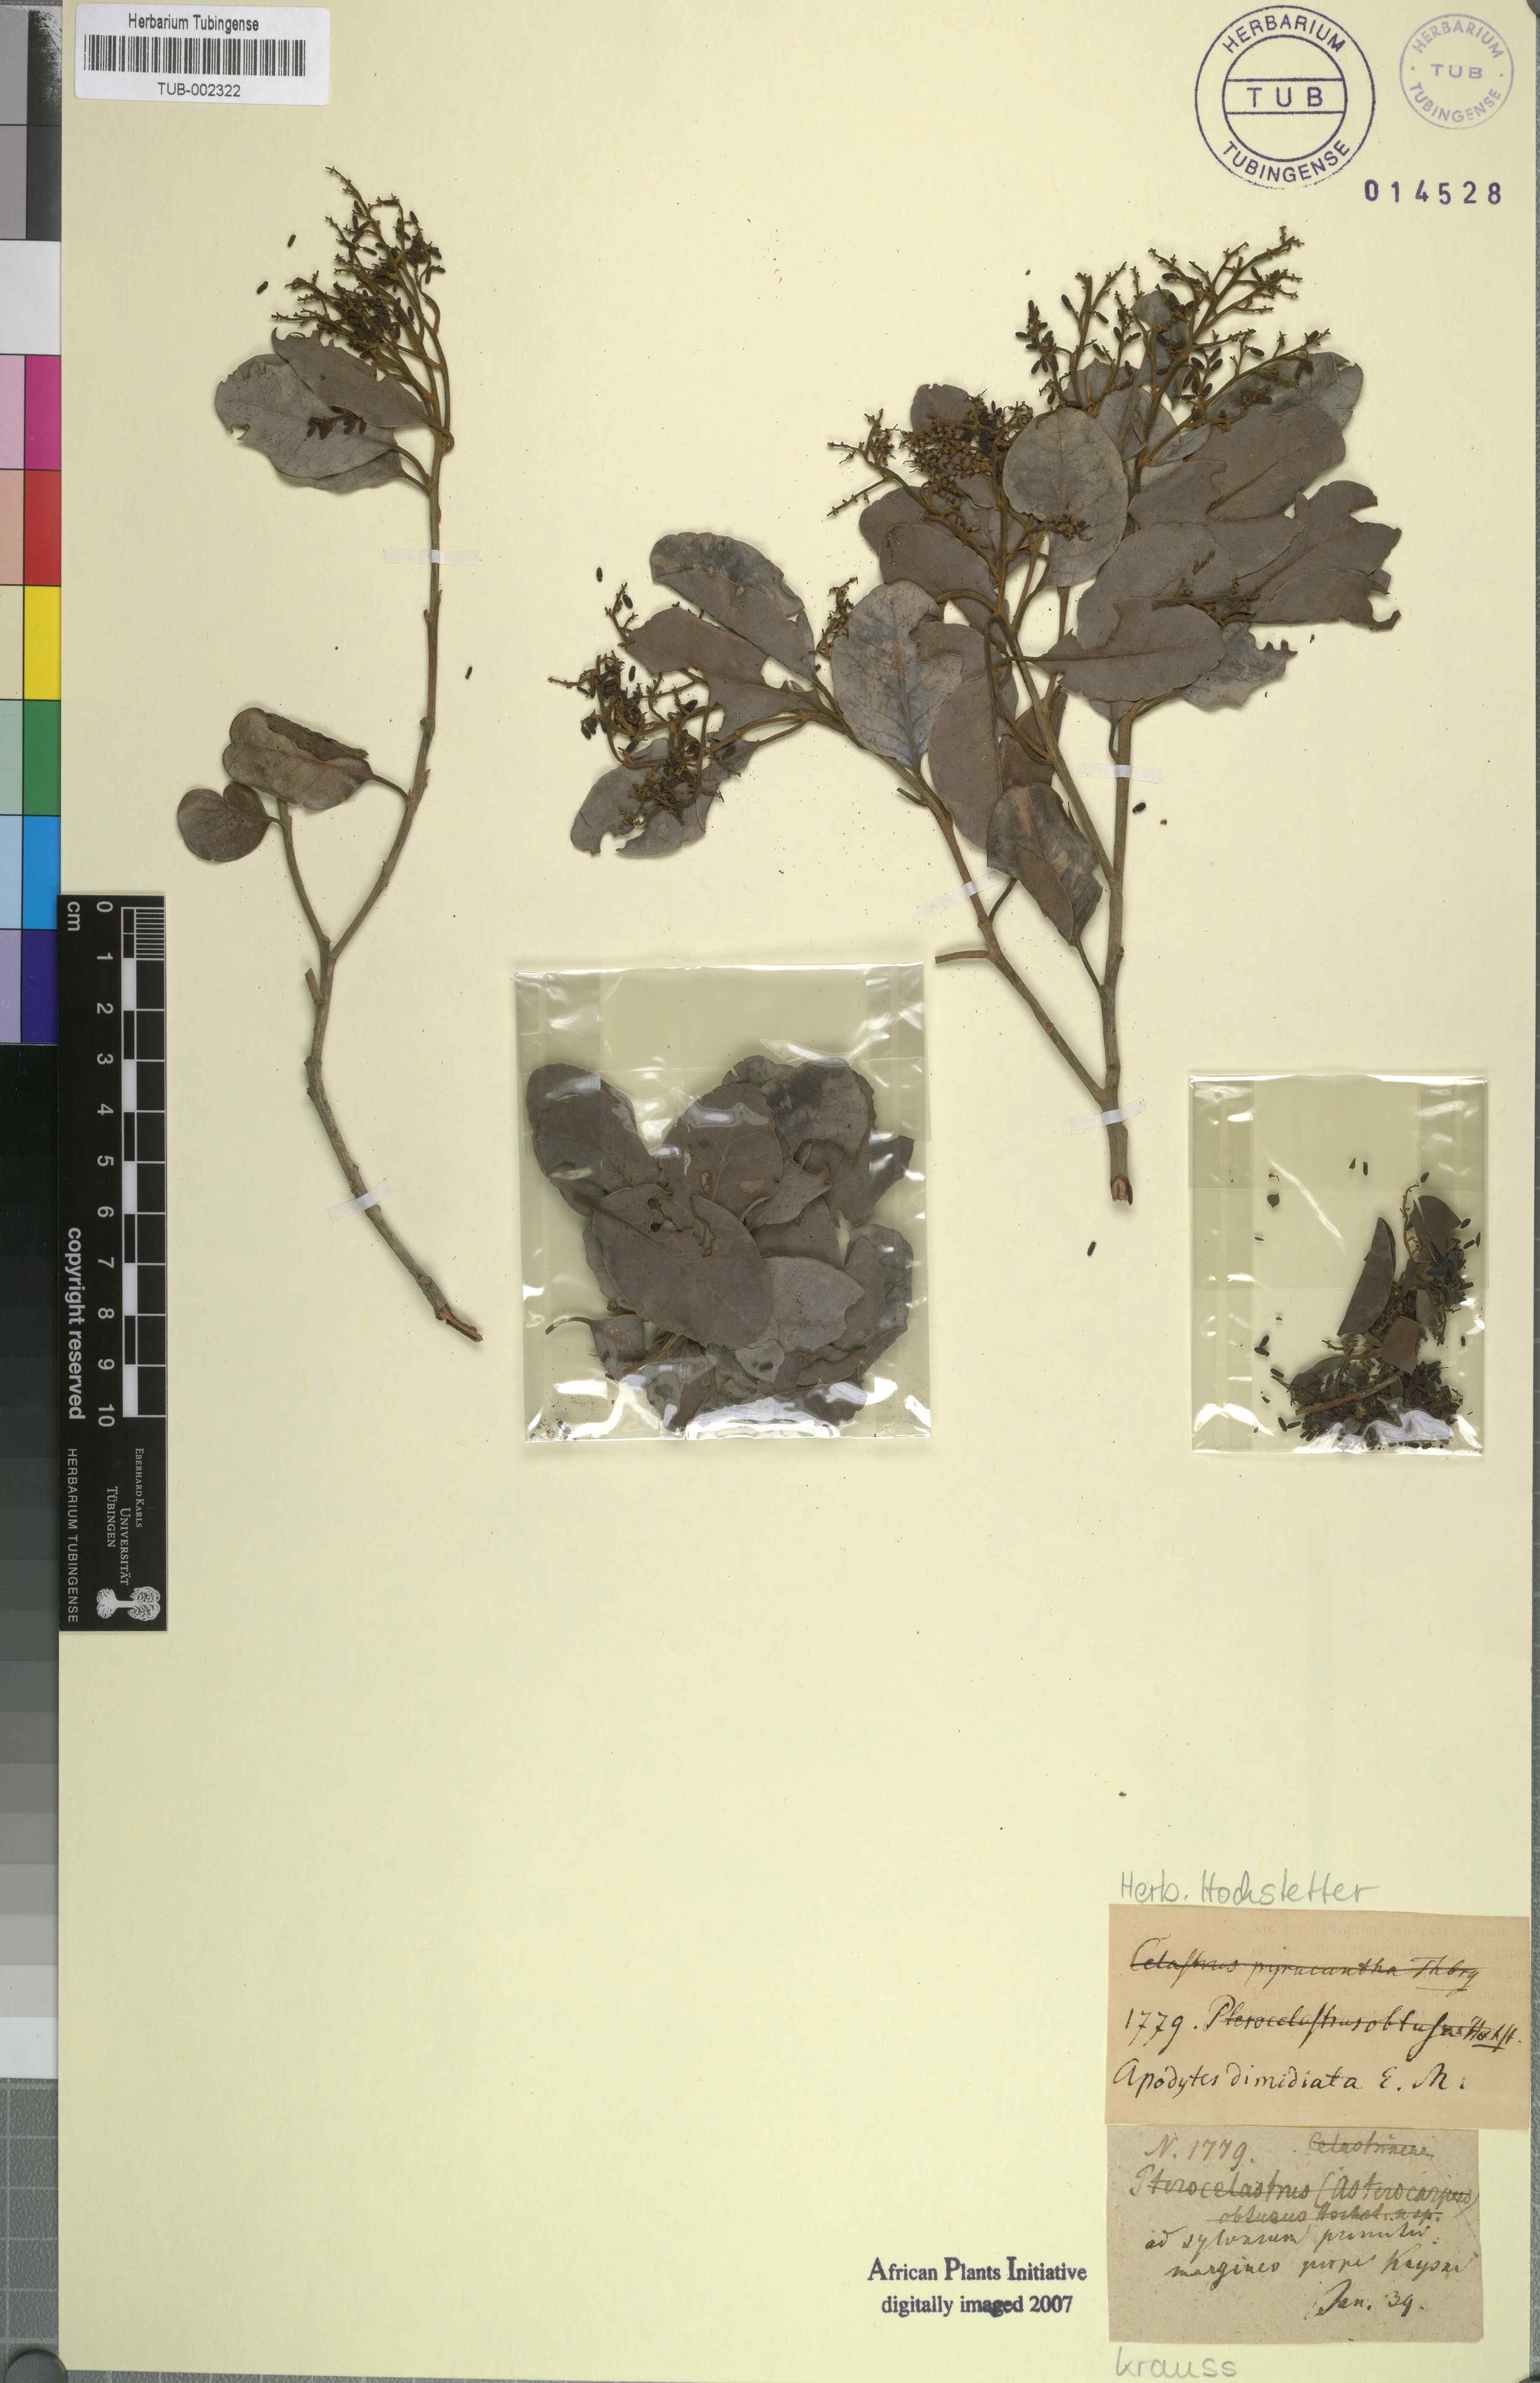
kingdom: Plantae
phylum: Tracheophyta
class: Magnoliopsida
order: Metteniusales
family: Metteniusaceae
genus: Apodytes
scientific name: Apodytes dimidiata
